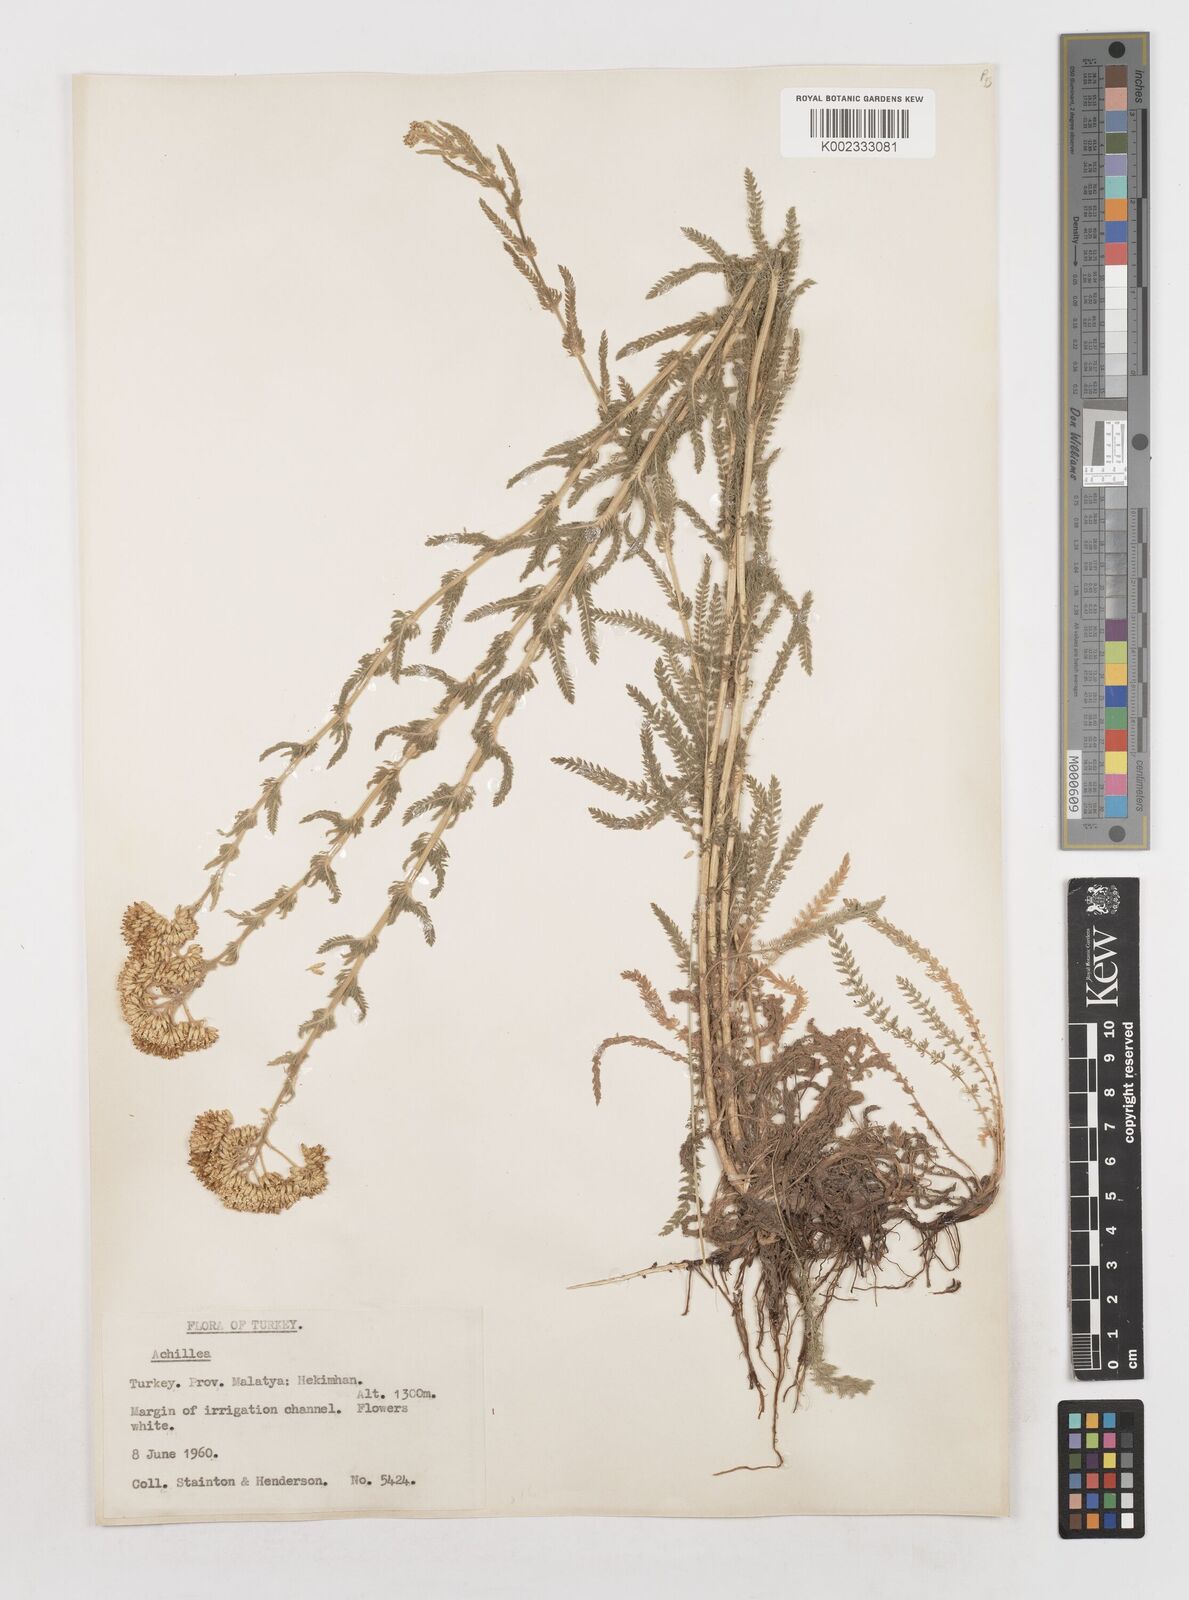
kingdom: Plantae
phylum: Tracheophyta
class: Magnoliopsida
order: Asterales
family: Asteraceae
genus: Achillea
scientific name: Achillea
